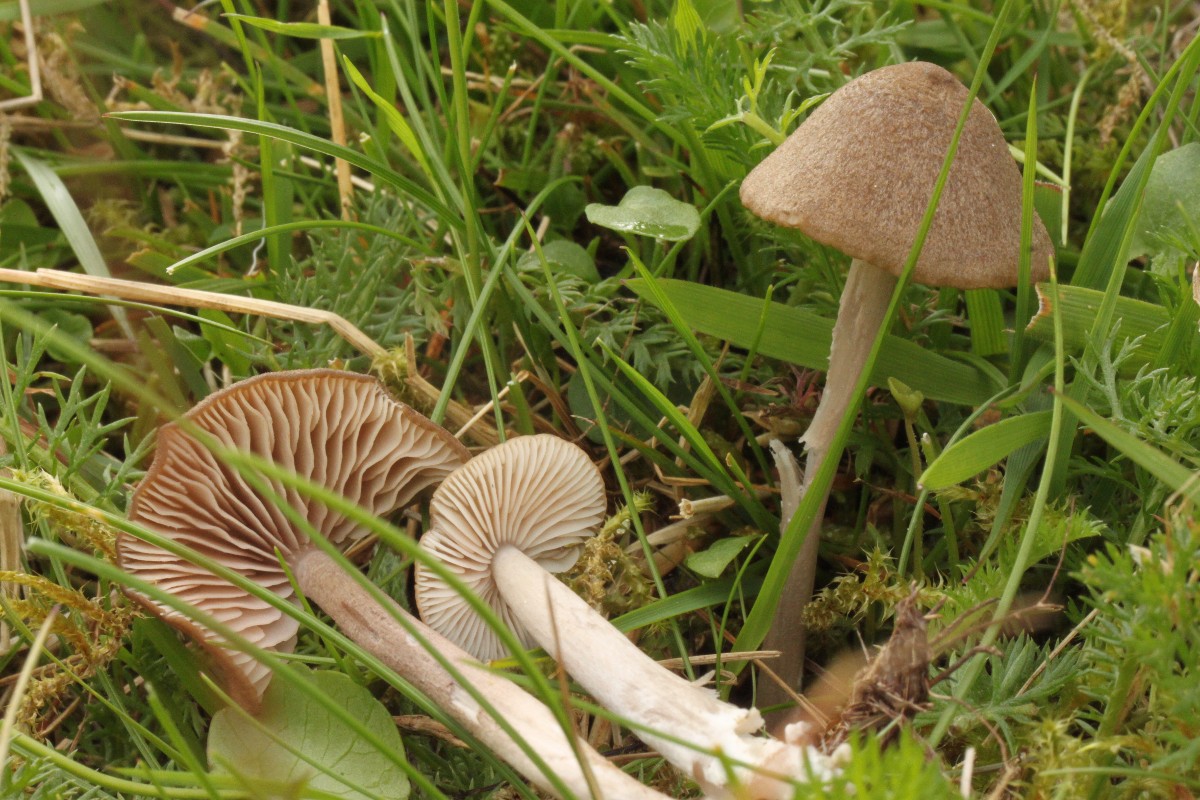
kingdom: Fungi
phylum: Basidiomycota
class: Agaricomycetes
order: Agaricales
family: Entolomataceae
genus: Entoloma
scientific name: Entoloma griseocyaneum
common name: gråblå rødblad
